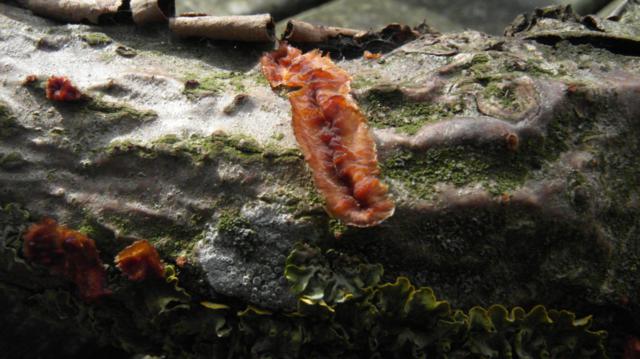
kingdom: Fungi
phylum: Basidiomycota
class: Agaricomycetes
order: Polyporales
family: Meruliaceae
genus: Phlebia
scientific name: Phlebia radiata
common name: stråle-åresvamp
